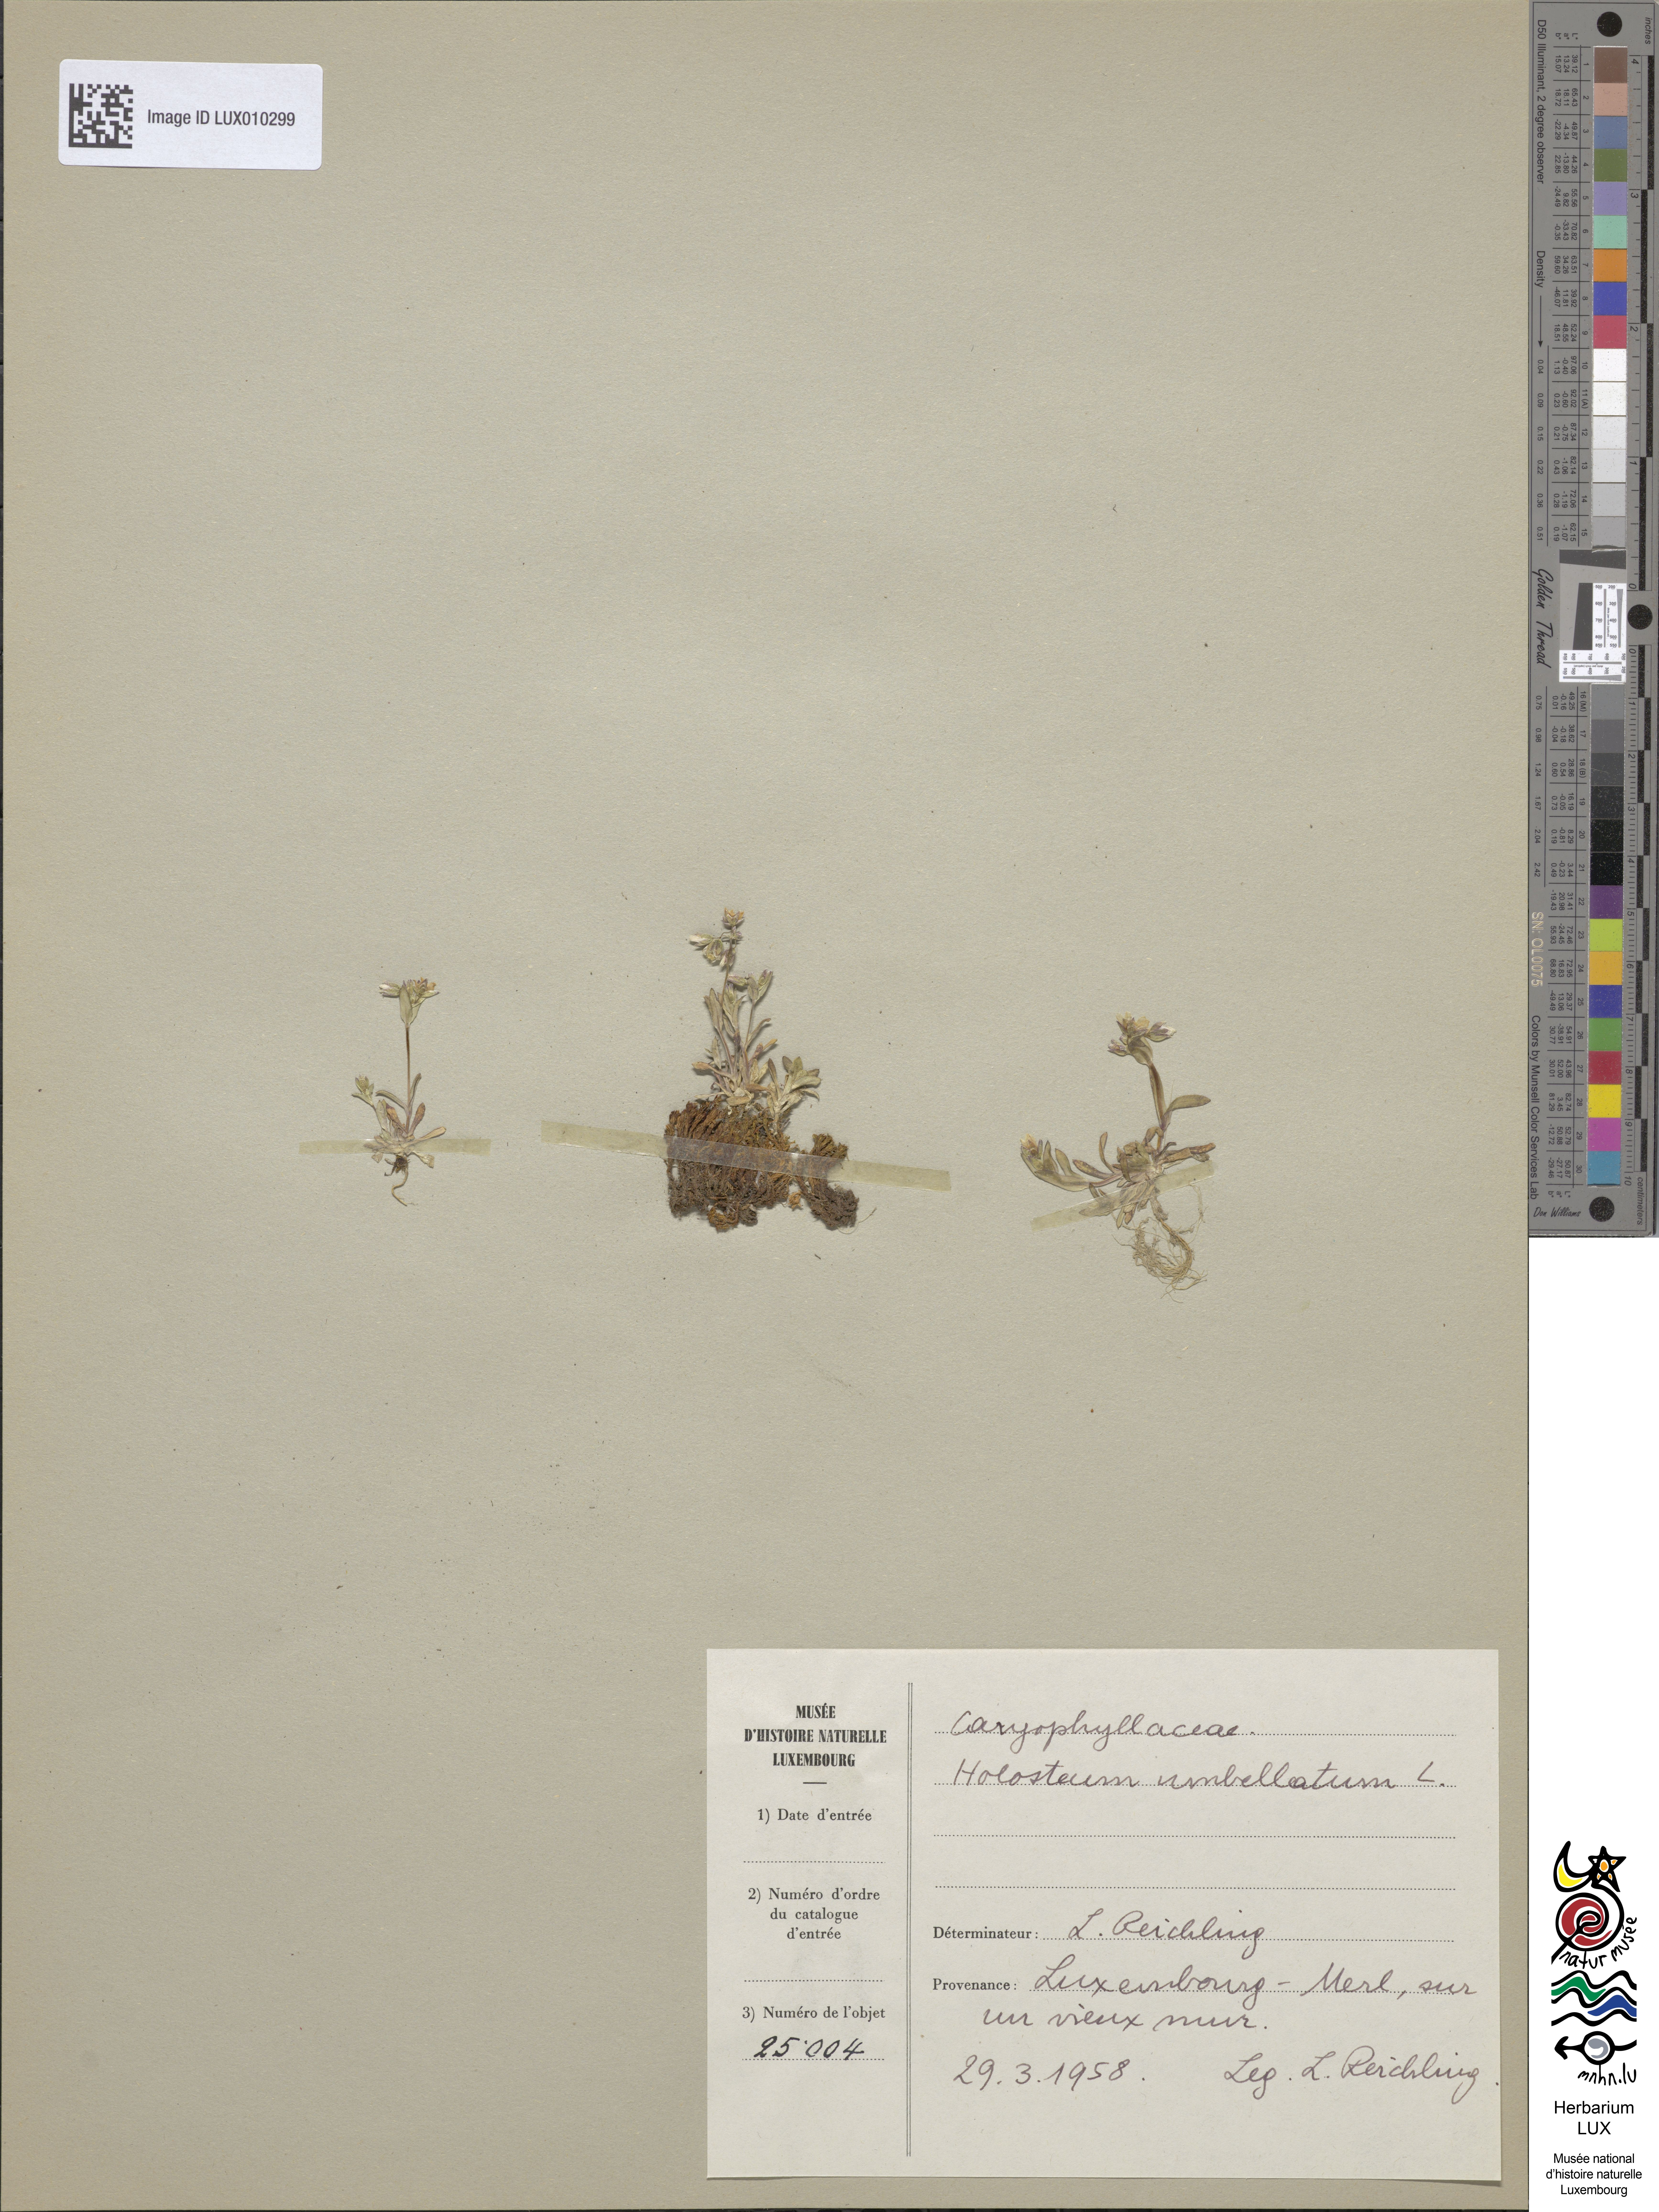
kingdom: Plantae
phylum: Tracheophyta
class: Magnoliopsida
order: Caryophyllales
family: Caryophyllaceae
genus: Holosteum
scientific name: Holosteum umbellatum
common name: Jagged chickweed
